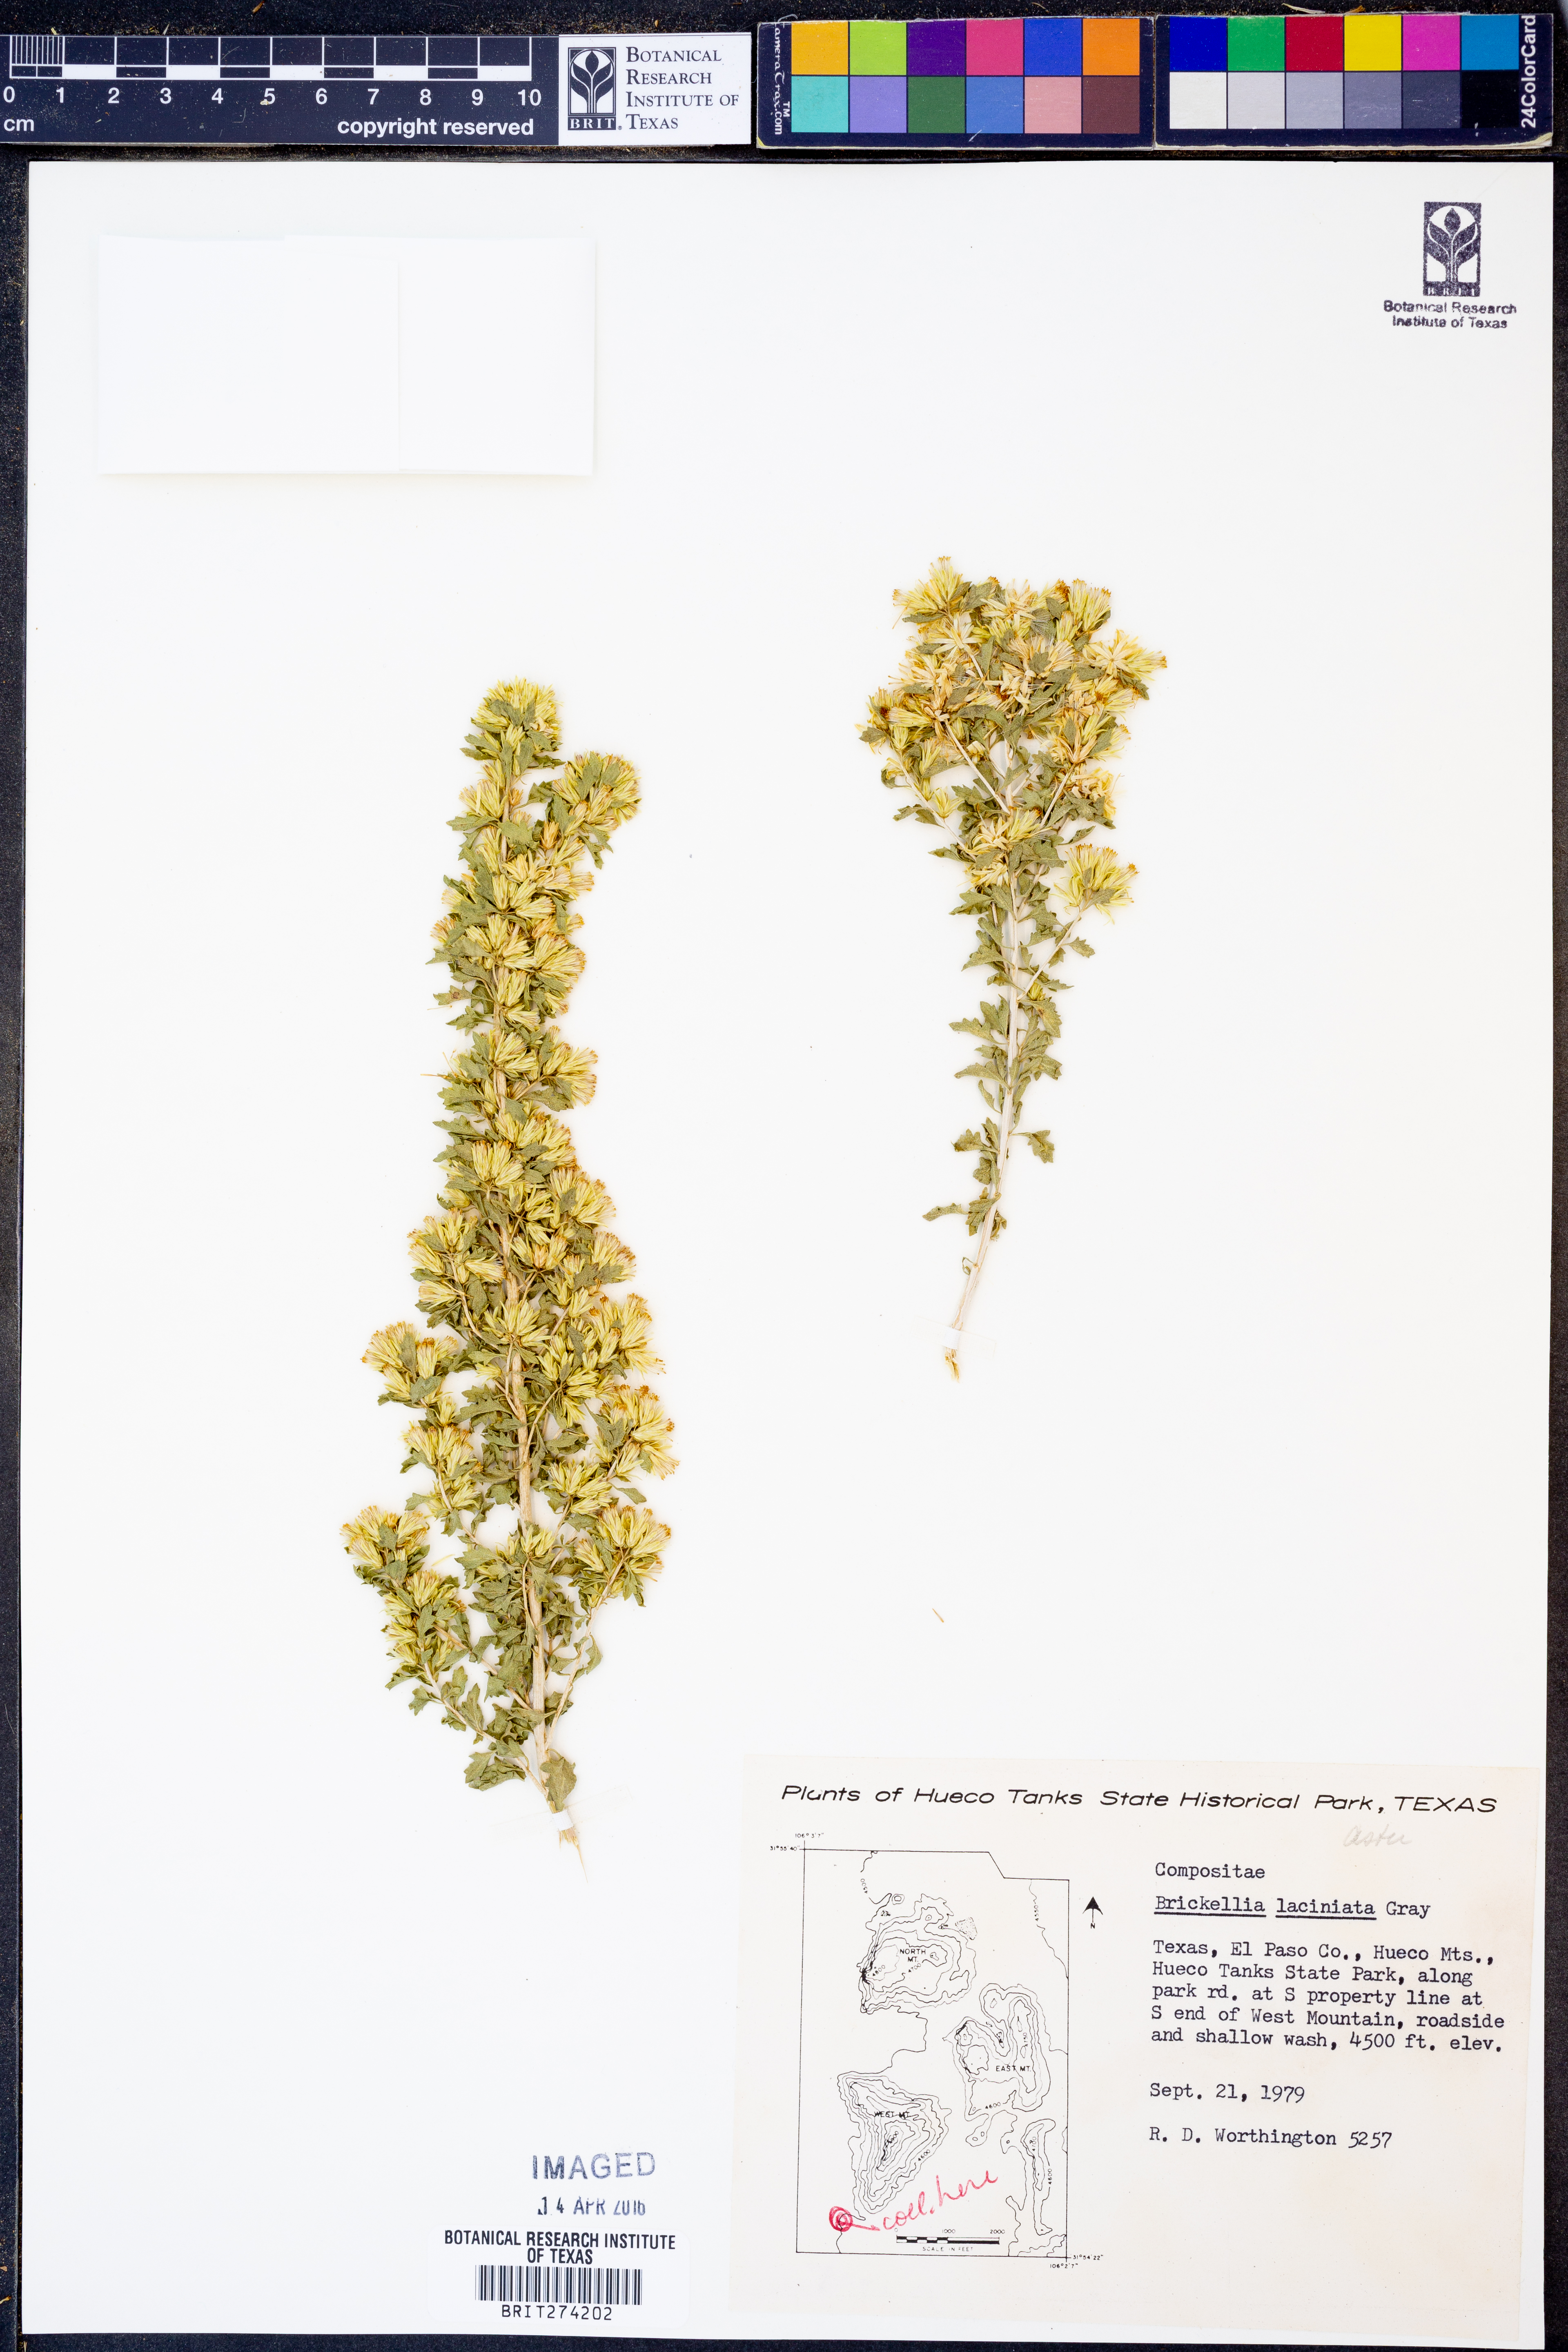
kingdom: Plantae
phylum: Tracheophyta
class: Magnoliopsida
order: Asterales
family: Asteraceae
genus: Brickellia
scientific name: Brickellia laciniata
